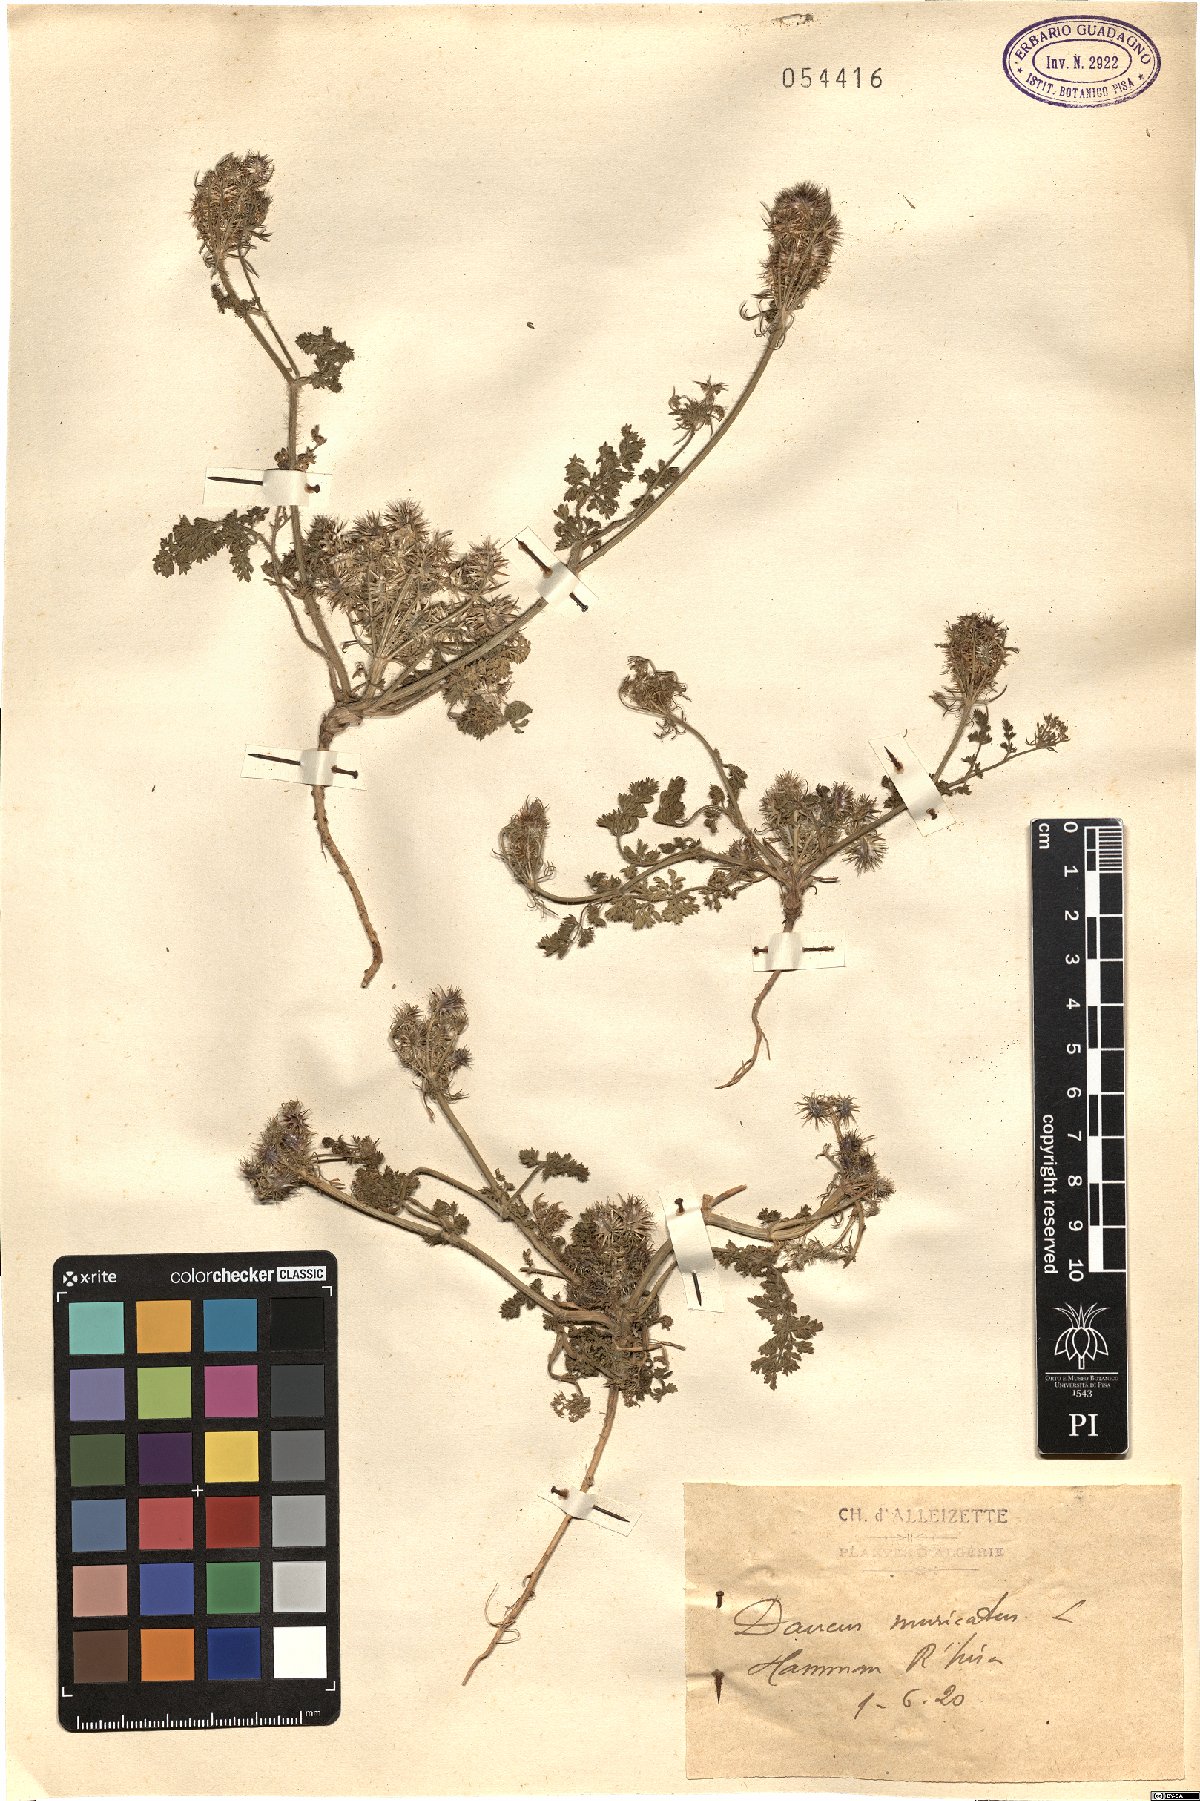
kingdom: Plantae
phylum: Tracheophyta
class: Magnoliopsida
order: Apiales
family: Apiaceae
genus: Daucus
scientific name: Daucus muricatus
